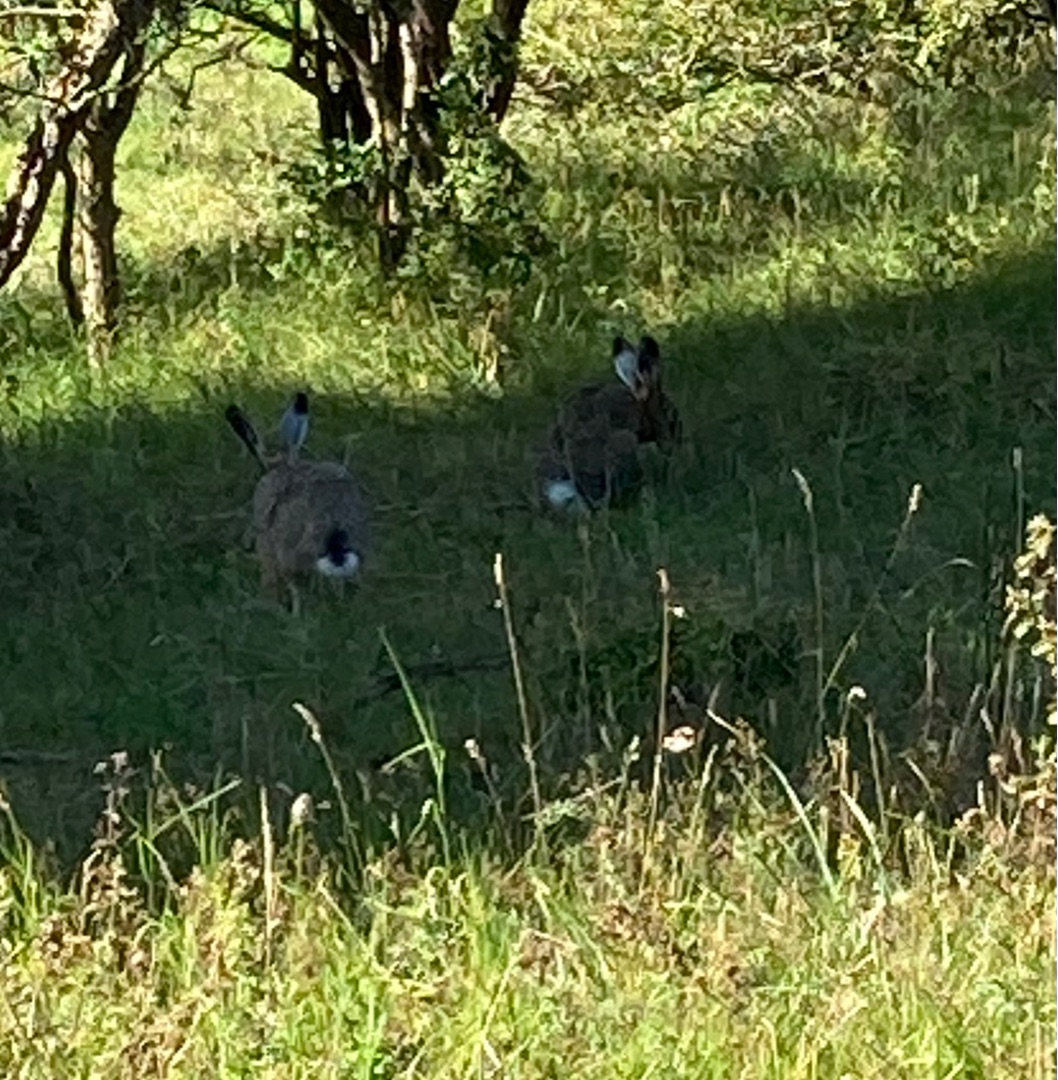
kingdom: Animalia
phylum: Chordata
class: Mammalia
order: Lagomorpha
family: Leporidae
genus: Lepus
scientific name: Lepus europaeus
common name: Hare
